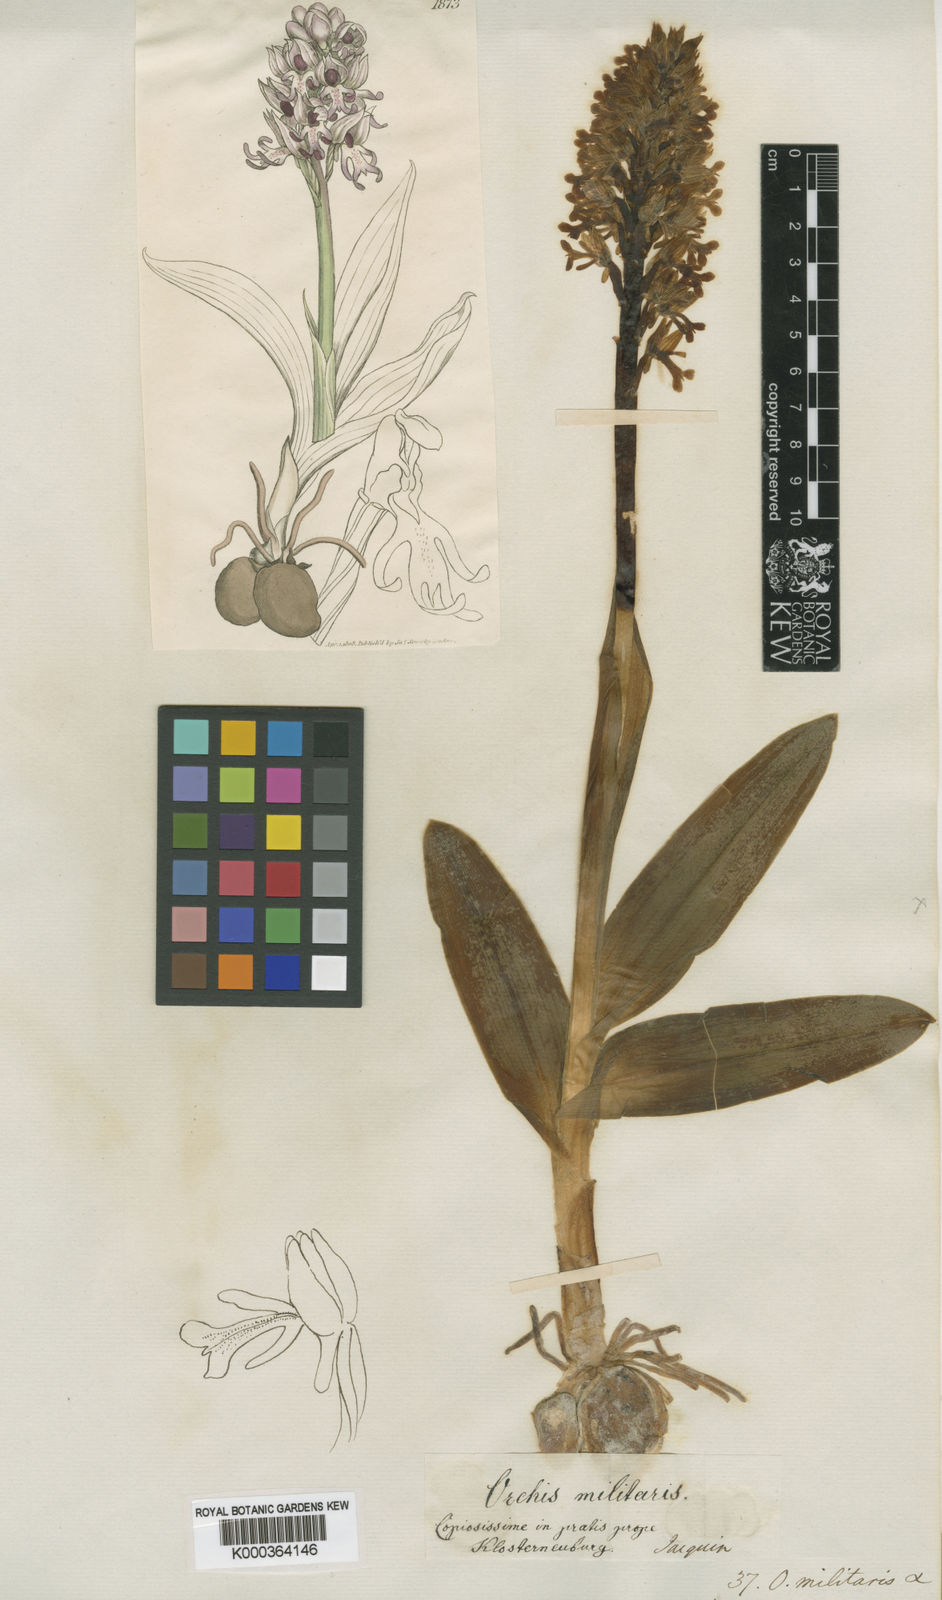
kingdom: Plantae
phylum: Tracheophyta
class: Liliopsida
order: Asparagales
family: Orchidaceae
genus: Orchis
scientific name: Orchis militaris
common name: Military orchid
